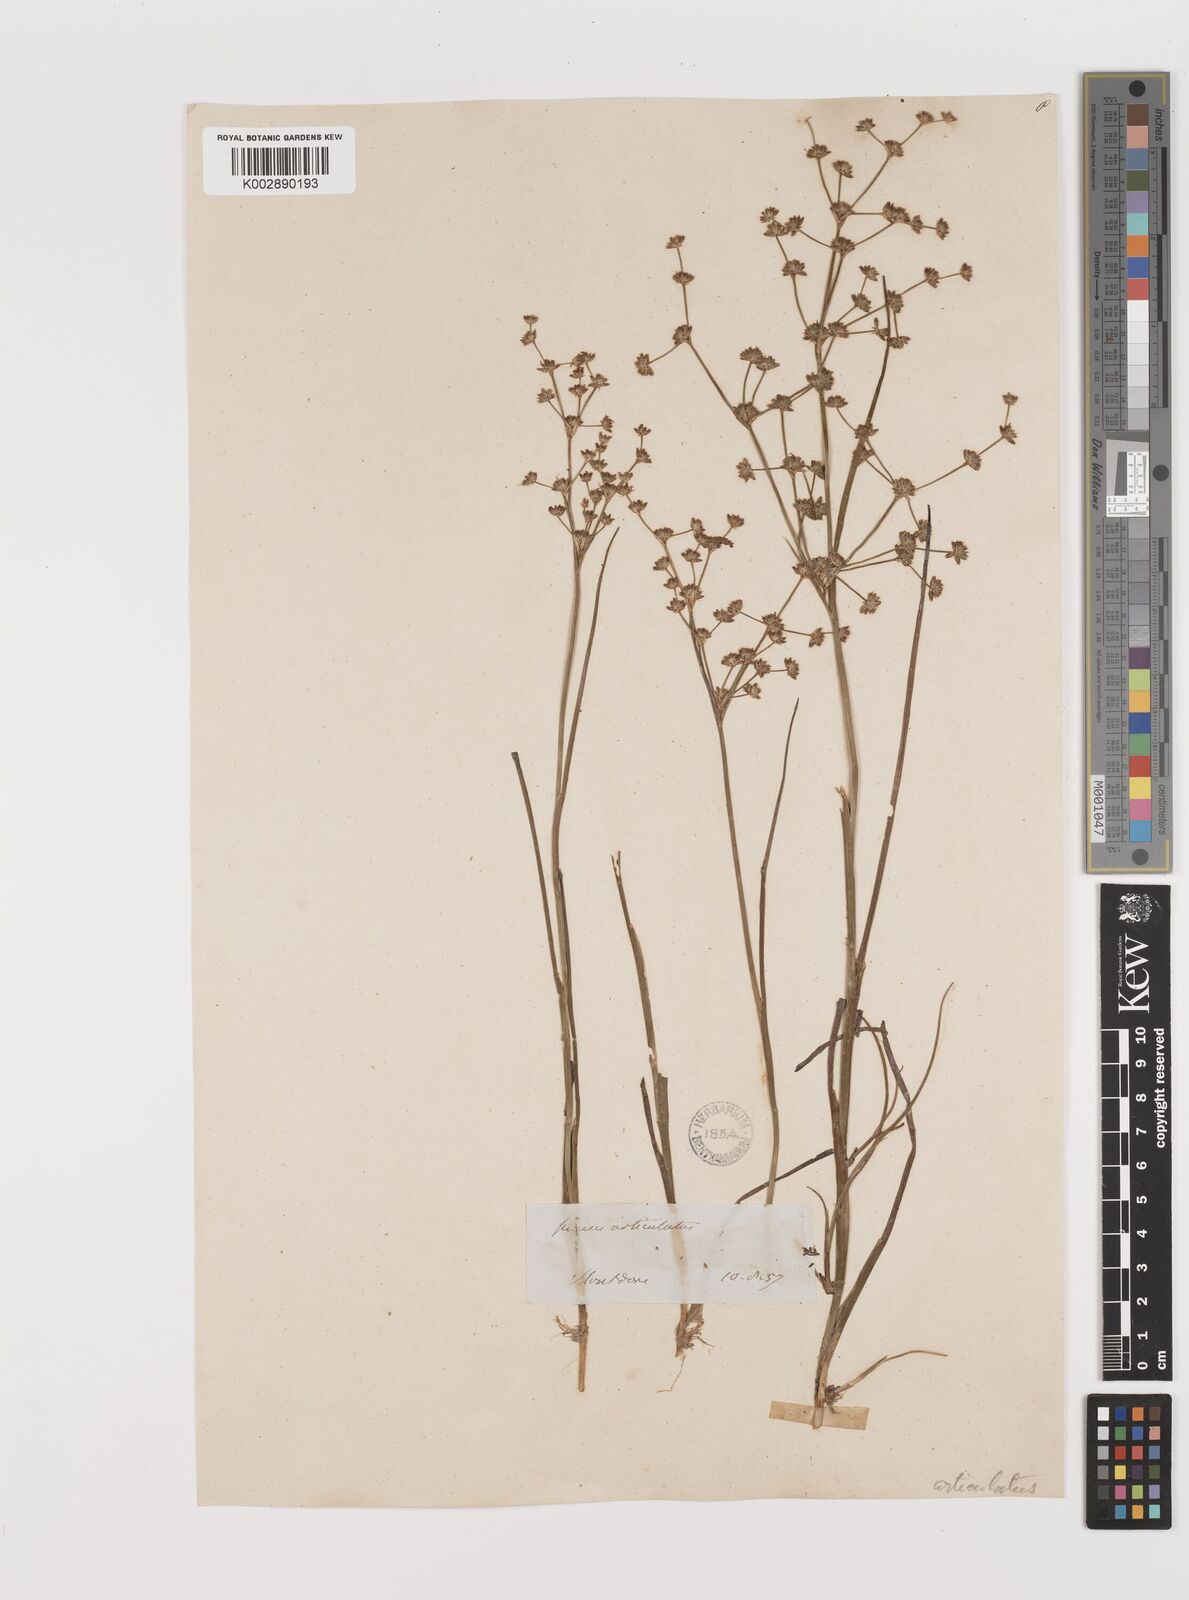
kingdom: Plantae
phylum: Tracheophyta
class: Liliopsida
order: Poales
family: Juncaceae
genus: Juncus
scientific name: Juncus articulatus
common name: Jointed rush
